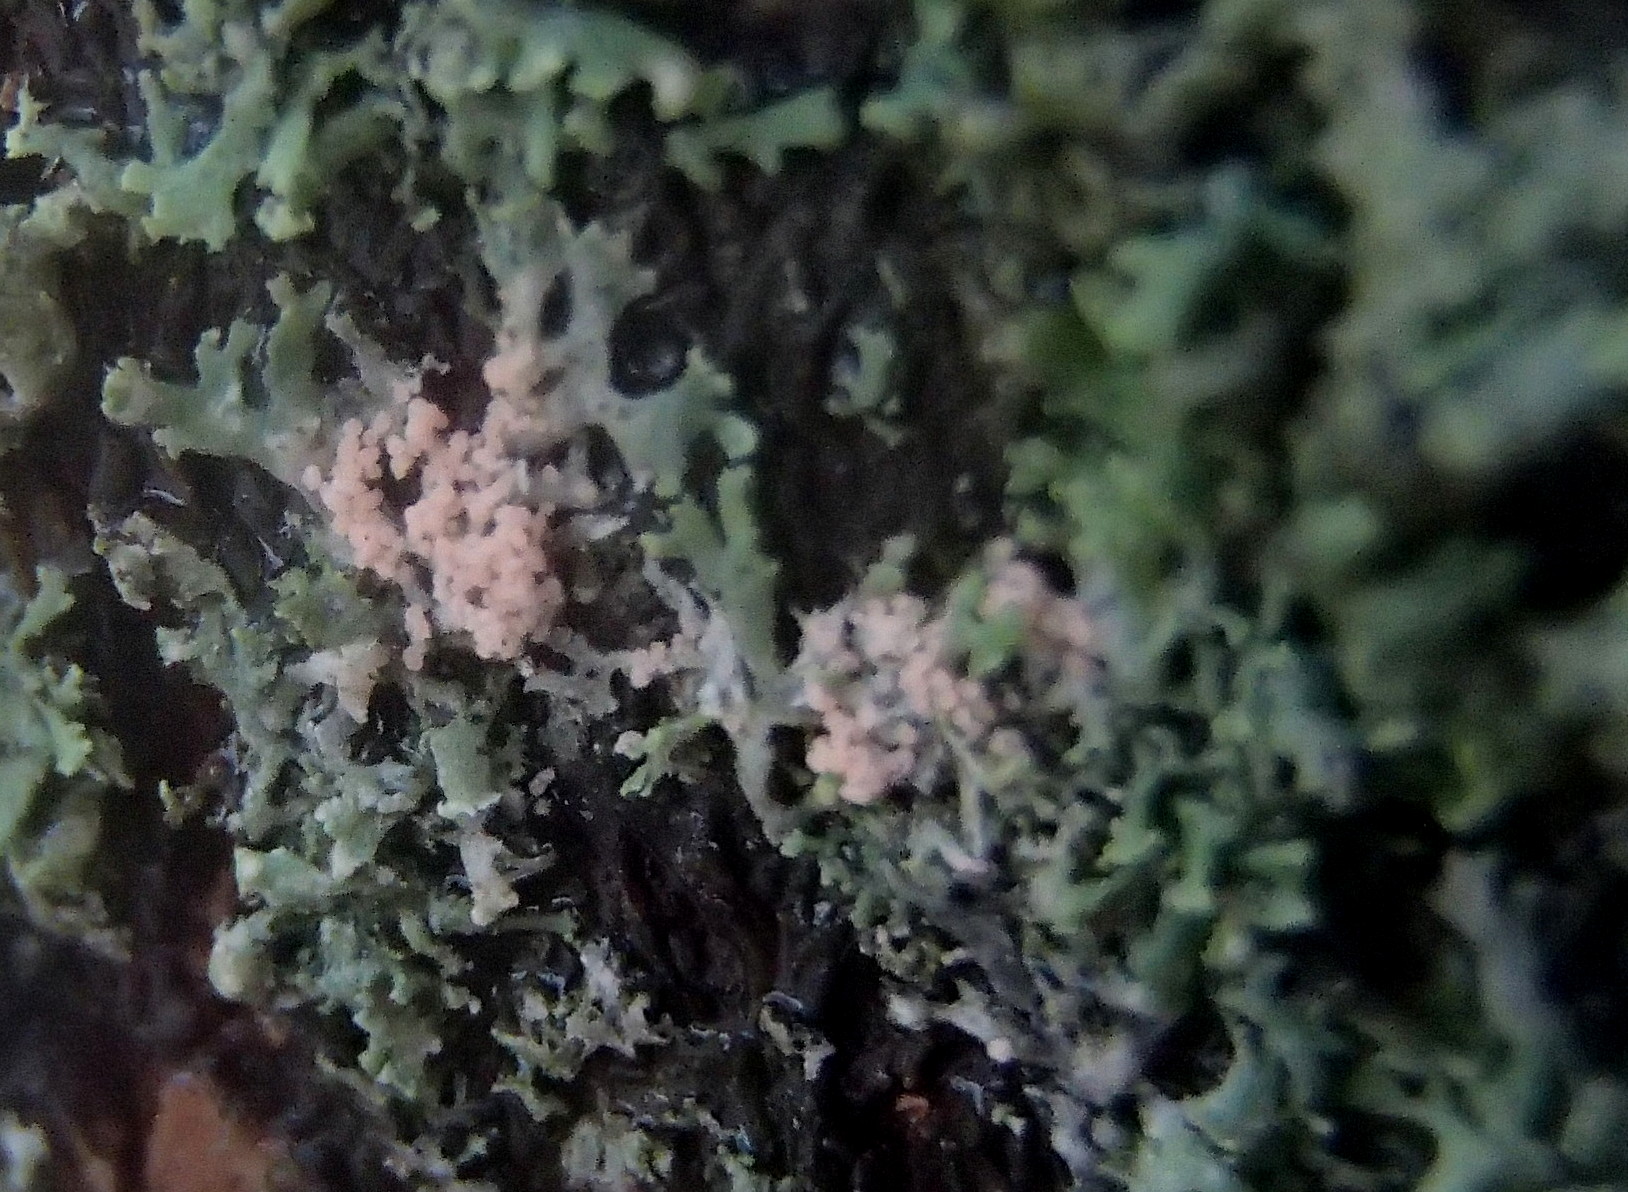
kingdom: Fungi
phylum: Basidiomycota
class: Agaricomycetes
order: Corticiales
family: Corticiaceae
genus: Erythricium
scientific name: Erythricium aurantiacum
